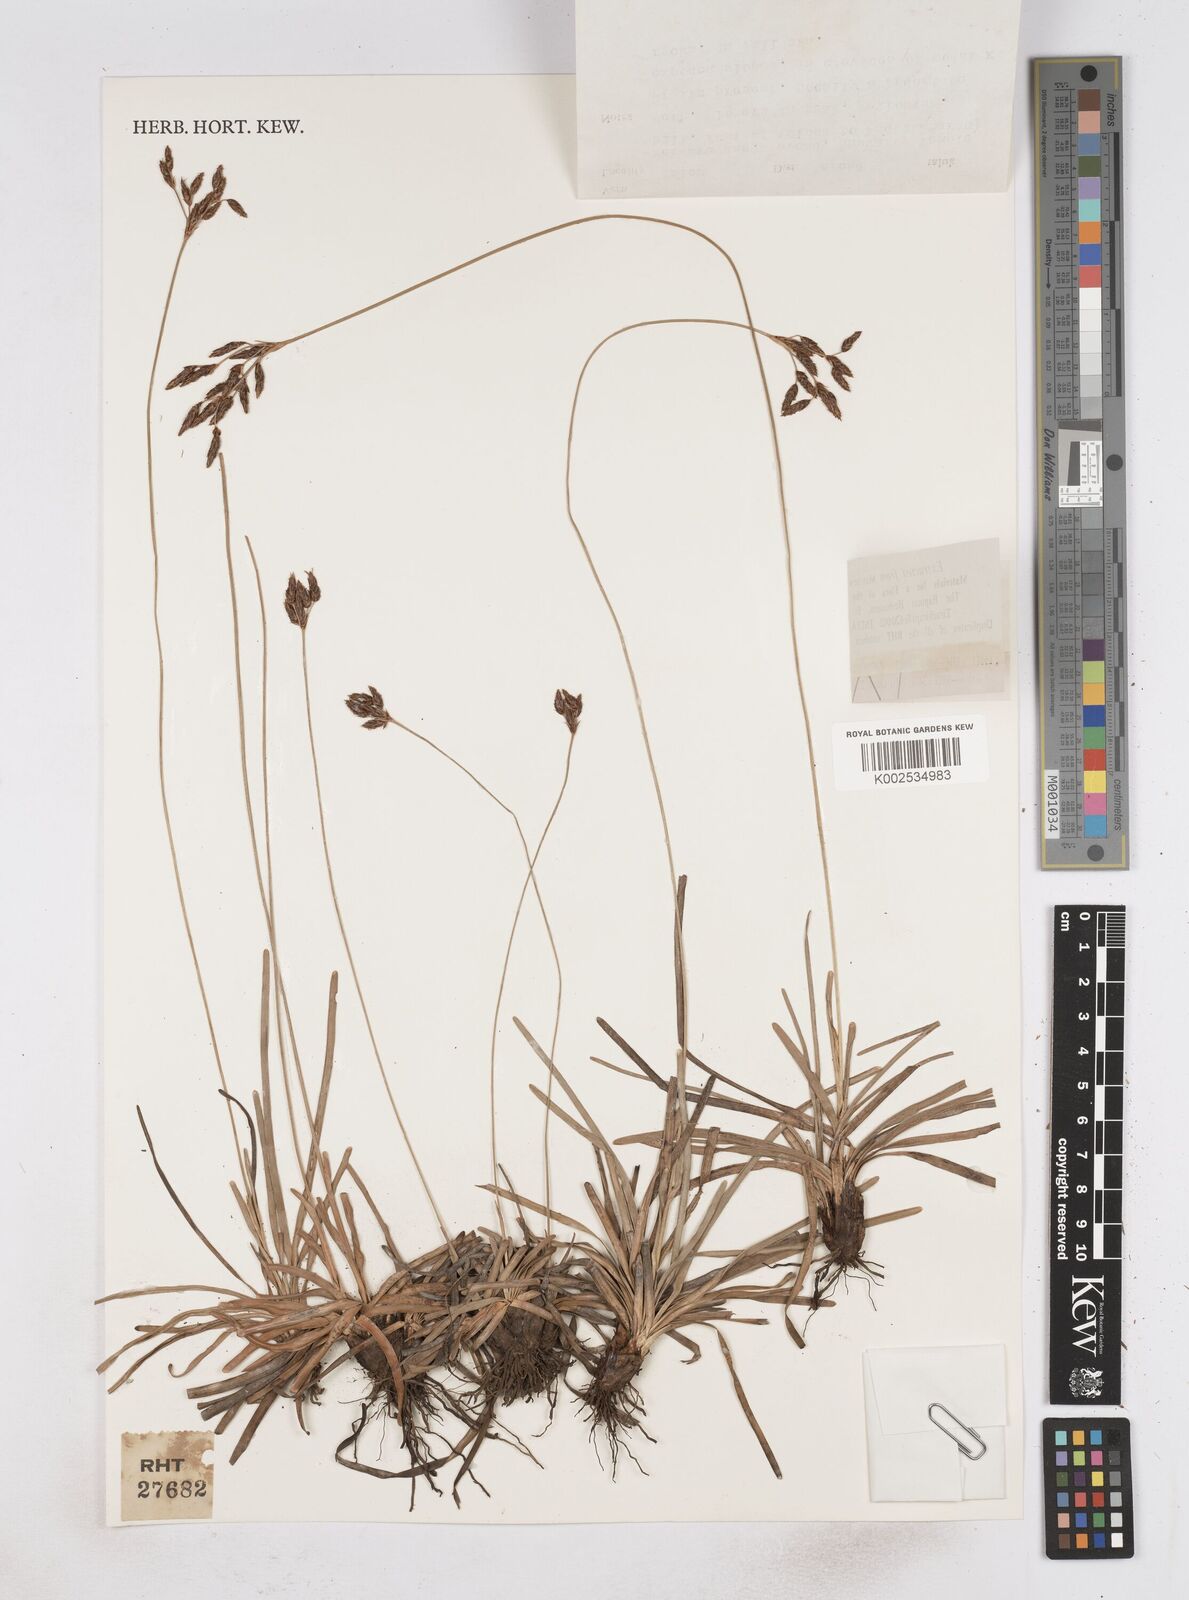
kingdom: Plantae
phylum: Tracheophyta
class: Liliopsida
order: Poales
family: Cyperaceae
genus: Fimbristylis
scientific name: Fimbristylis nigrobrunnea
